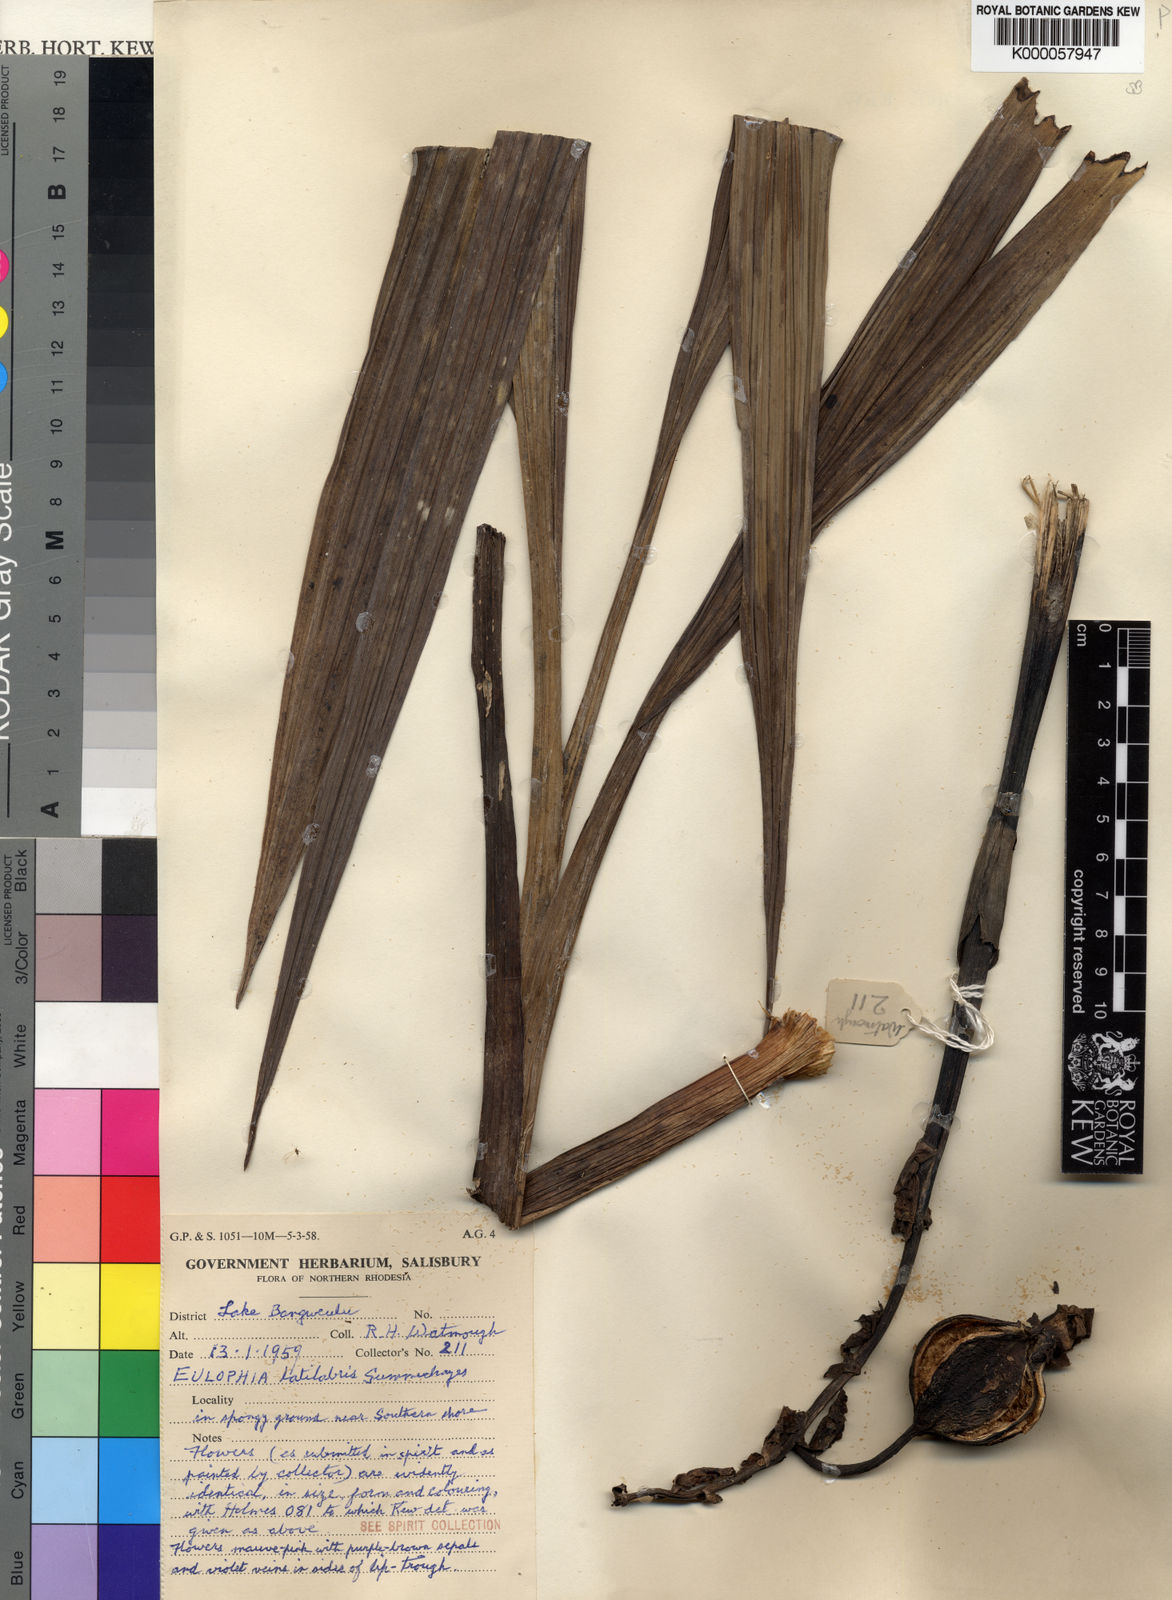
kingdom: Plantae
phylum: Tracheophyta
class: Liliopsida
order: Asparagales
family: Orchidaceae
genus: Eulophia
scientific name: Eulophia latilabris
